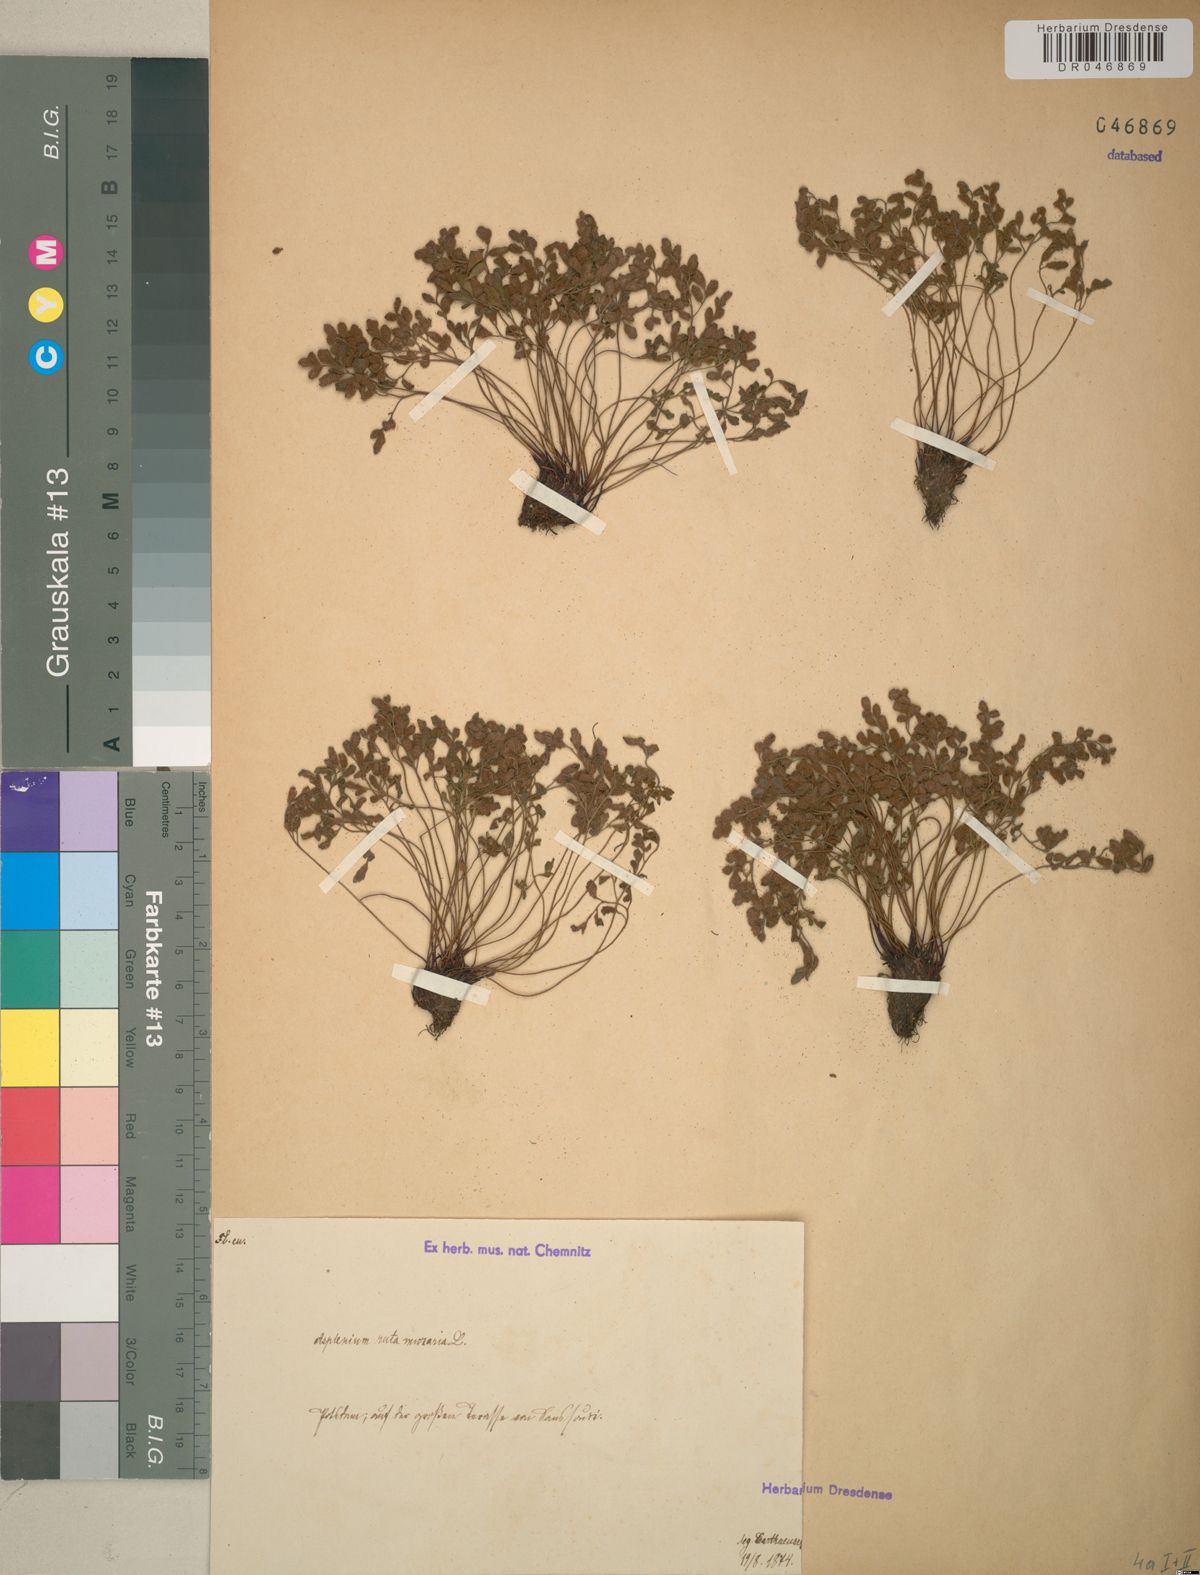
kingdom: Plantae
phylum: Tracheophyta
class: Polypodiopsida
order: Polypodiales
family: Aspleniaceae
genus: Asplenium
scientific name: Asplenium ruta-muraria
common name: Wall-rue
